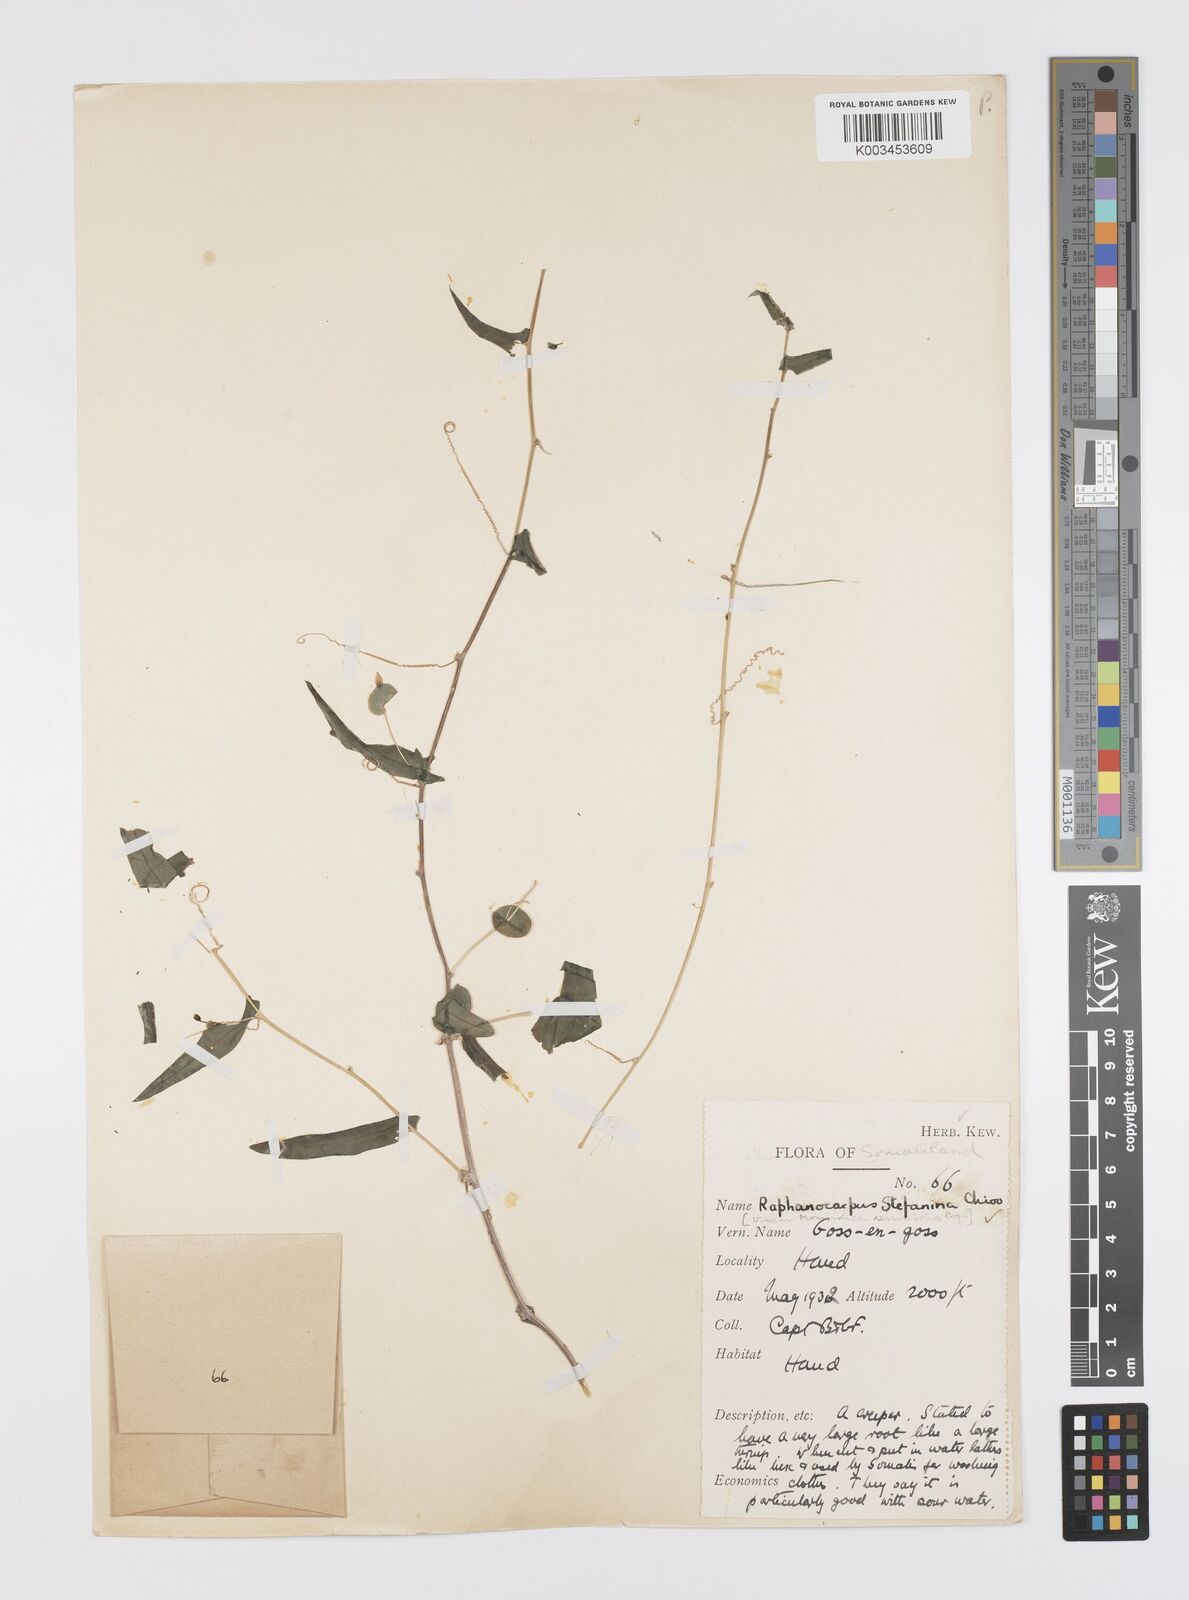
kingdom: Plantae
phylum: Tracheophyta
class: Magnoliopsida
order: Cucurbitales
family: Cucurbitaceae
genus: Momordica
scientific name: Momordica sessilifolia
